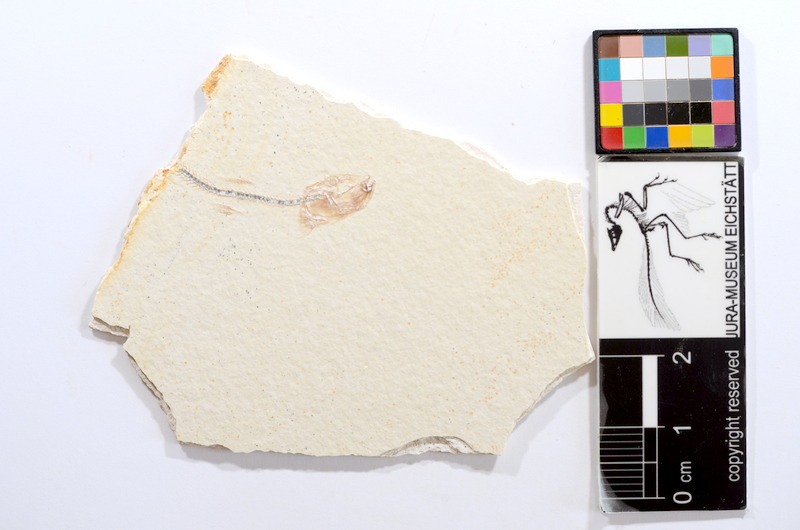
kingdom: Animalia
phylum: Chordata
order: Salmoniformes
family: Orthogonikleithridae
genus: Orthogonikleithrus
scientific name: Orthogonikleithrus hoelli
